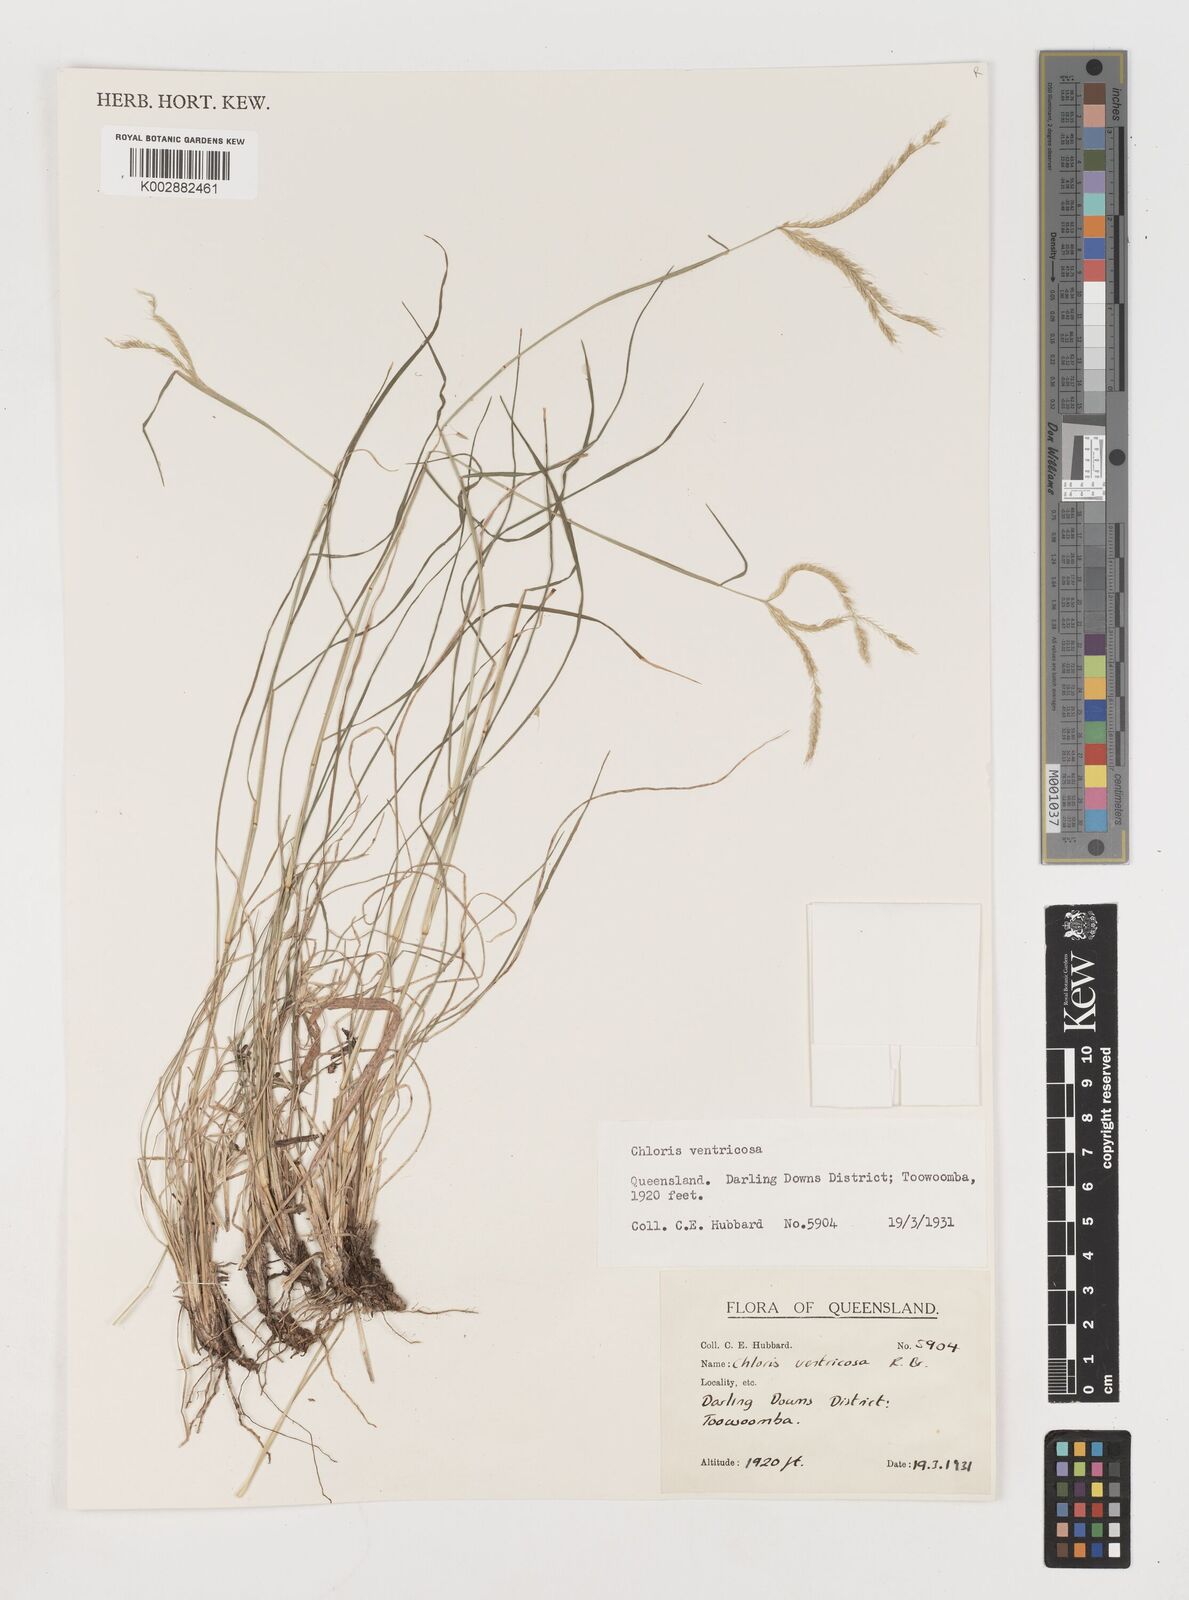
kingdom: Plantae
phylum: Tracheophyta
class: Liliopsida
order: Poales
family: Poaceae
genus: Chloris
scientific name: Chloris ventricosa
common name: Australian windmill grass
